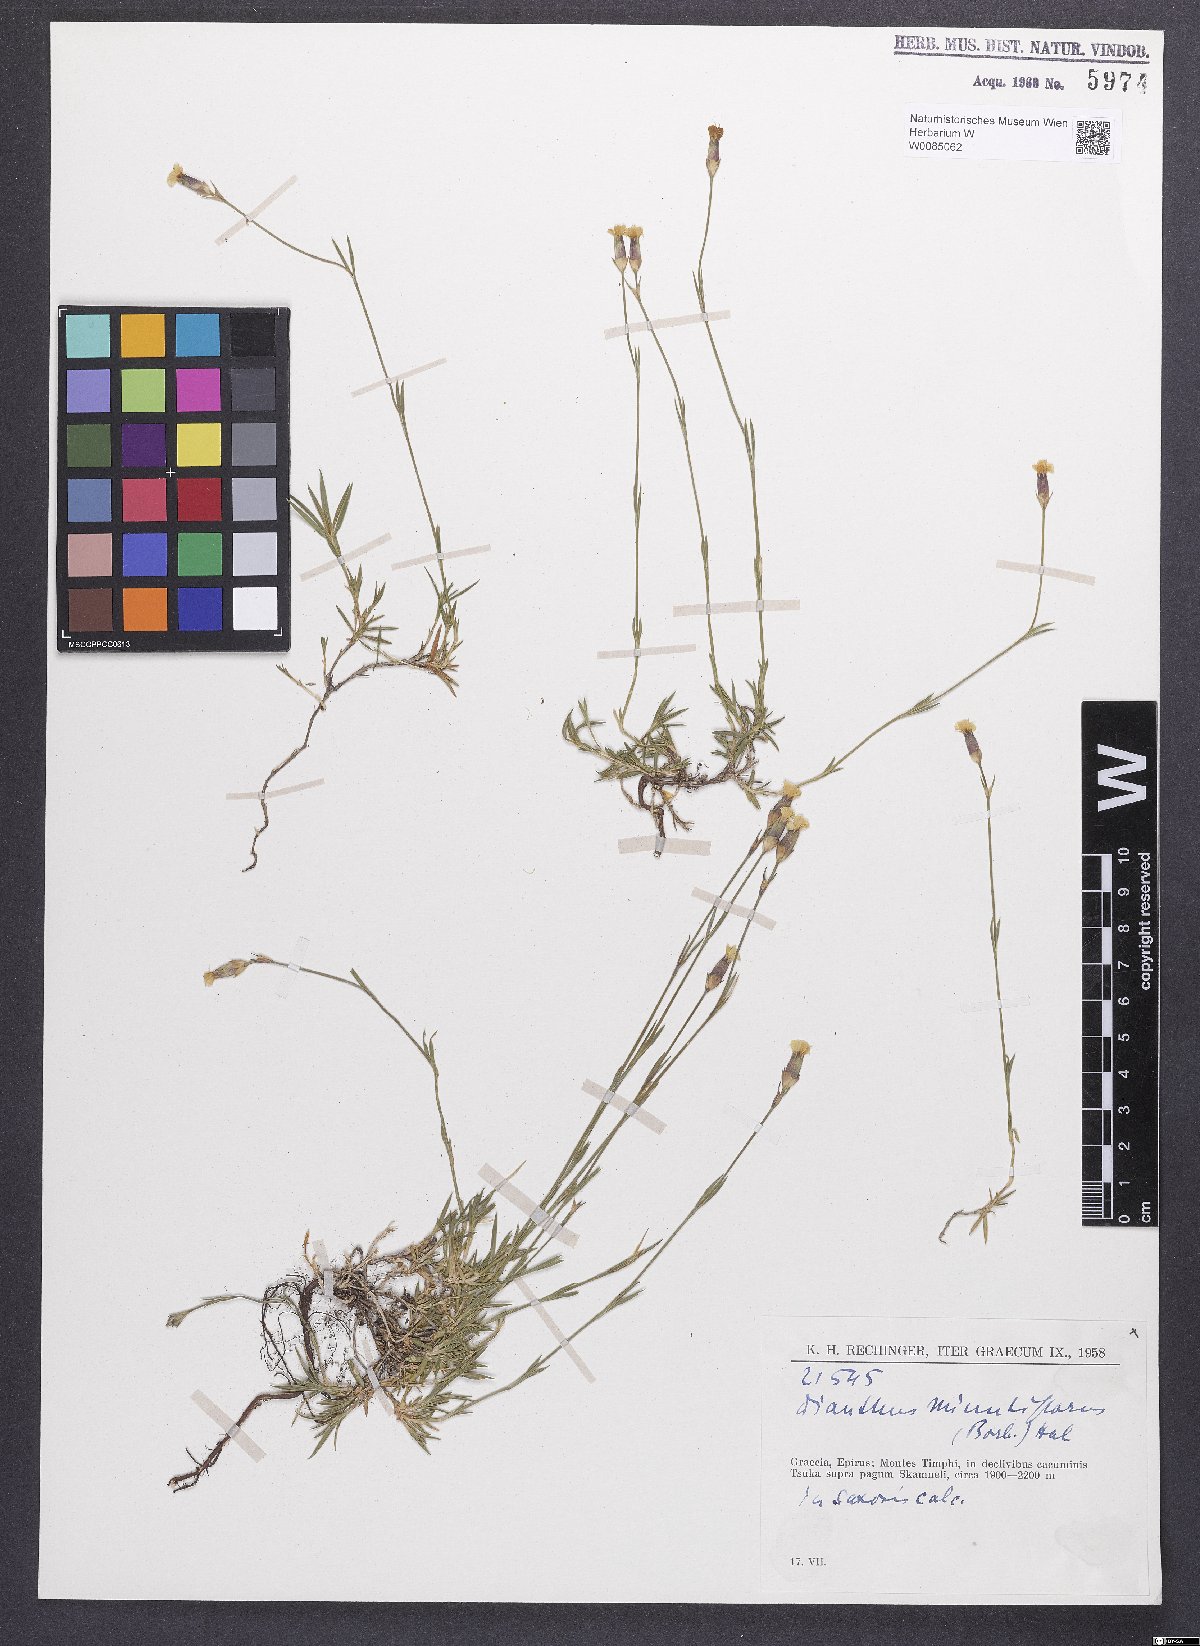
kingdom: Plantae
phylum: Tracheophyta
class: Magnoliopsida
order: Caryophyllales
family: Caryophyllaceae
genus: Dianthus
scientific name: Dianthus integer
